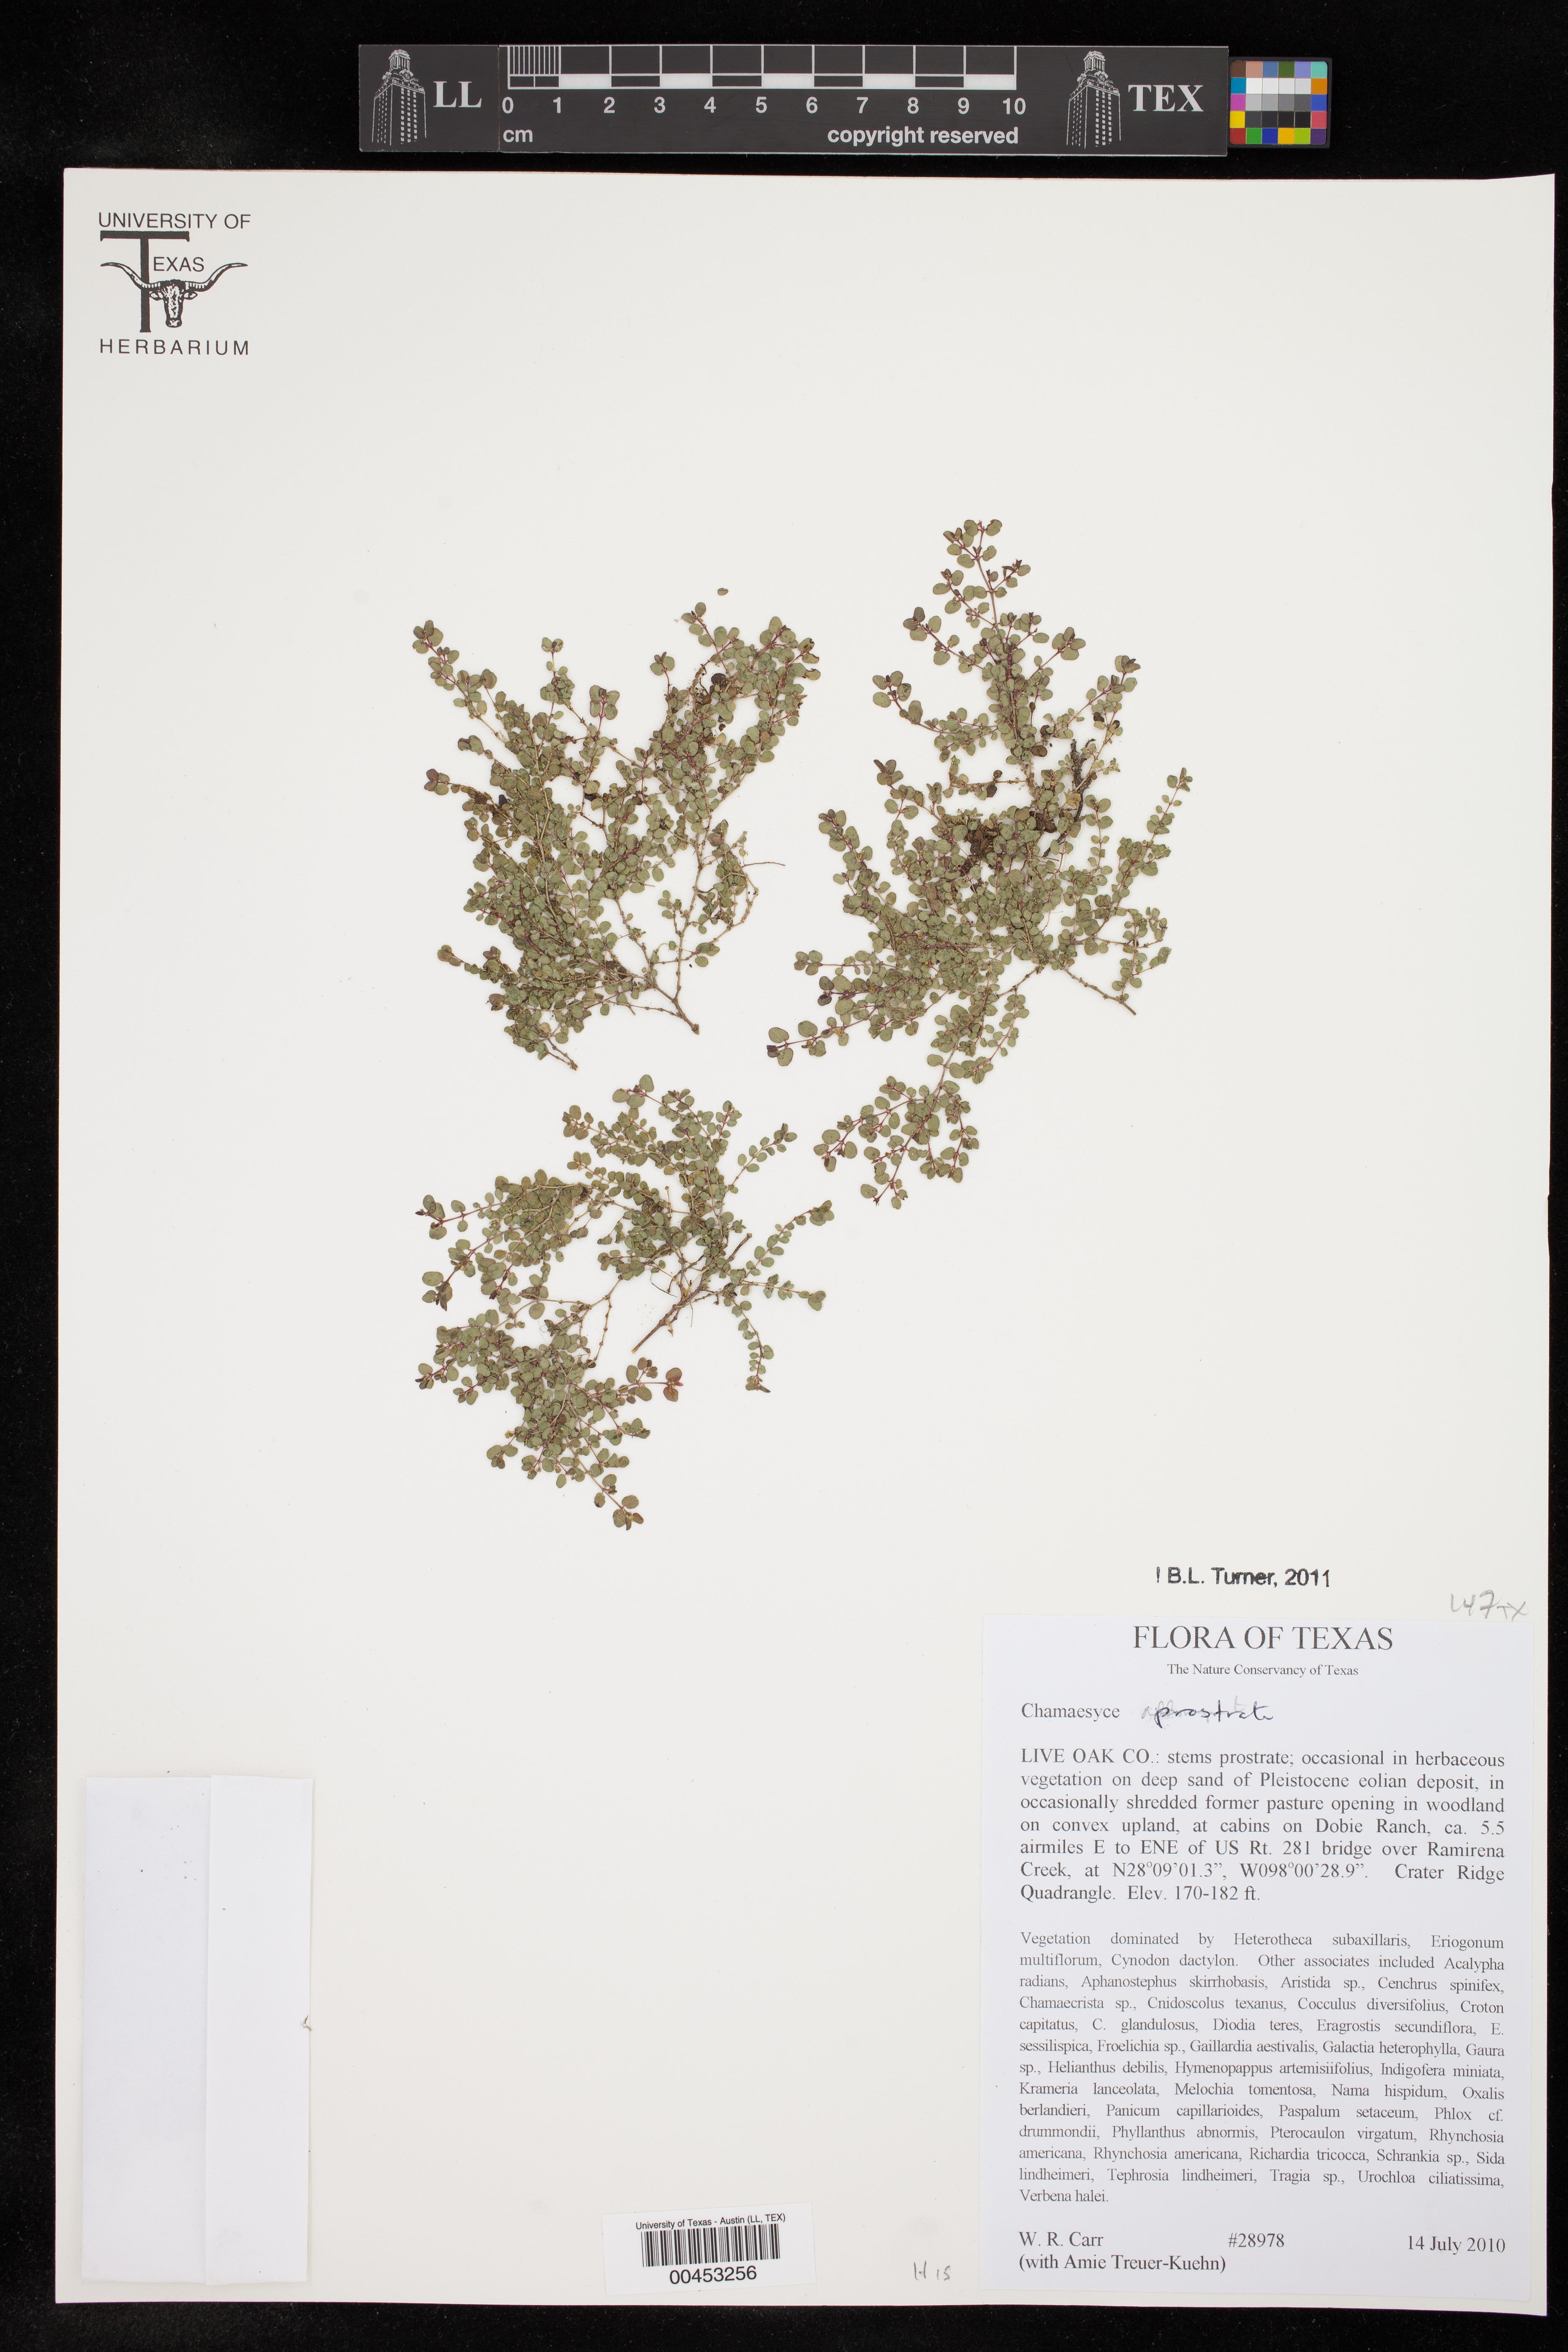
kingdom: Plantae
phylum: Tracheophyta
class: Magnoliopsida
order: Malpighiales
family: Euphorbiaceae
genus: Chamaesyce
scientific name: Chamaesyce
